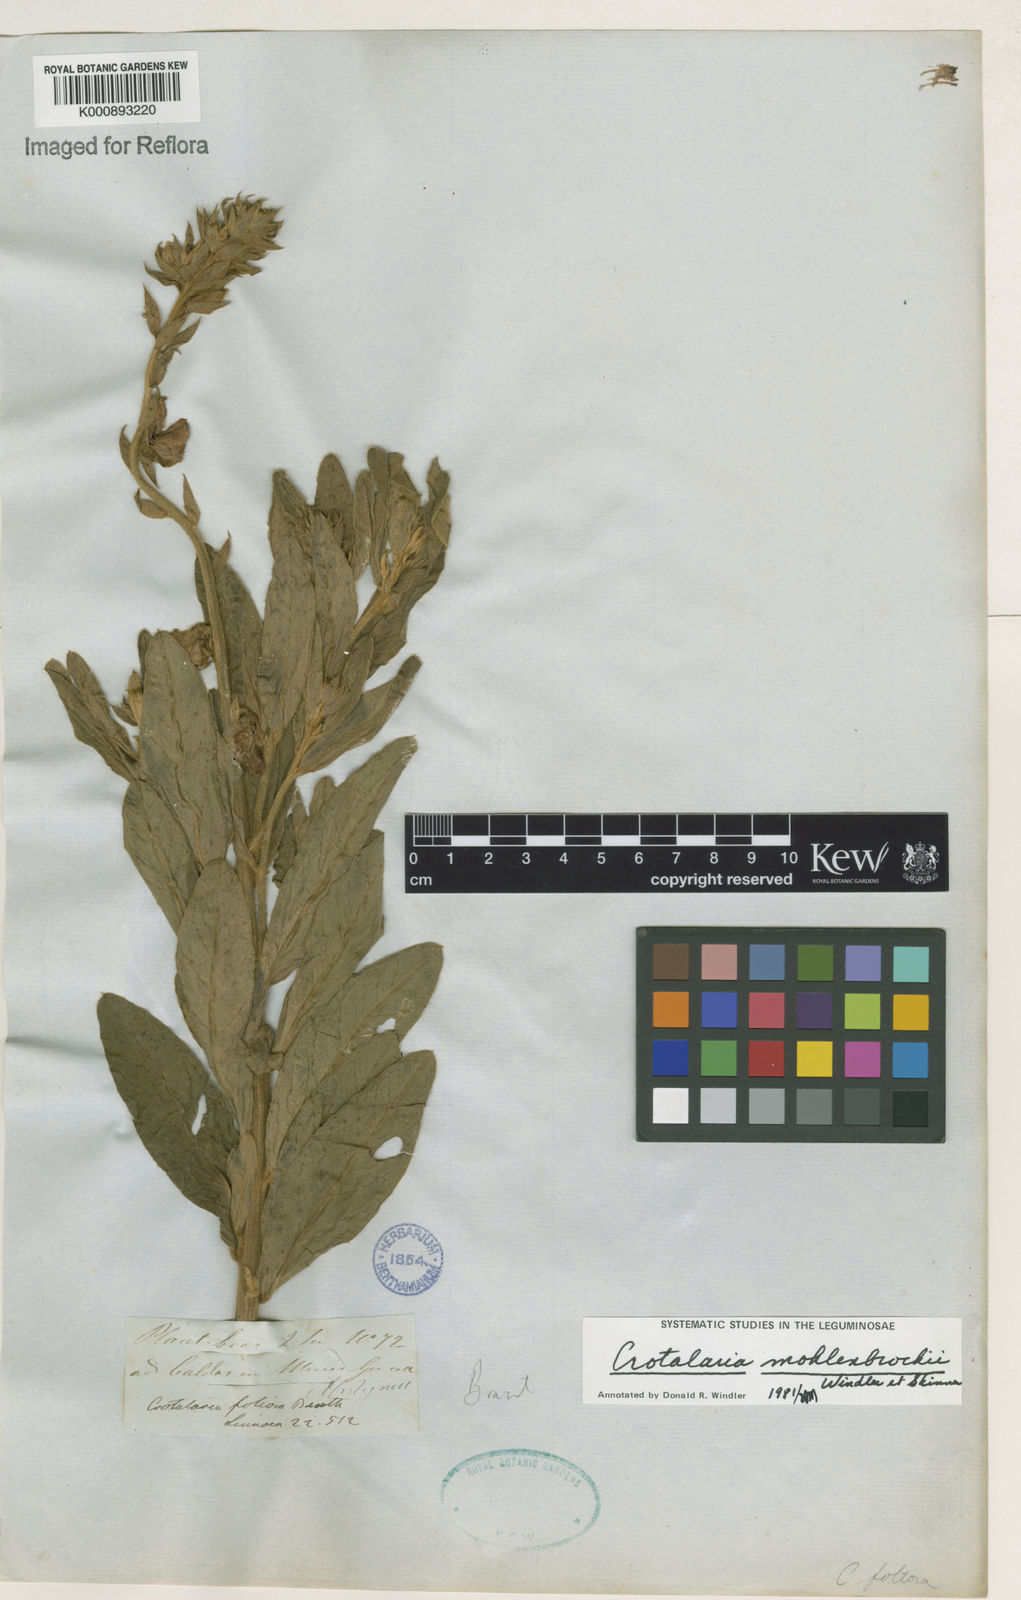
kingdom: Plantae
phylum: Tracheophyta
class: Magnoliopsida
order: Fabales
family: Fabaceae
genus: Crotalaria
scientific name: Crotalaria martiana
